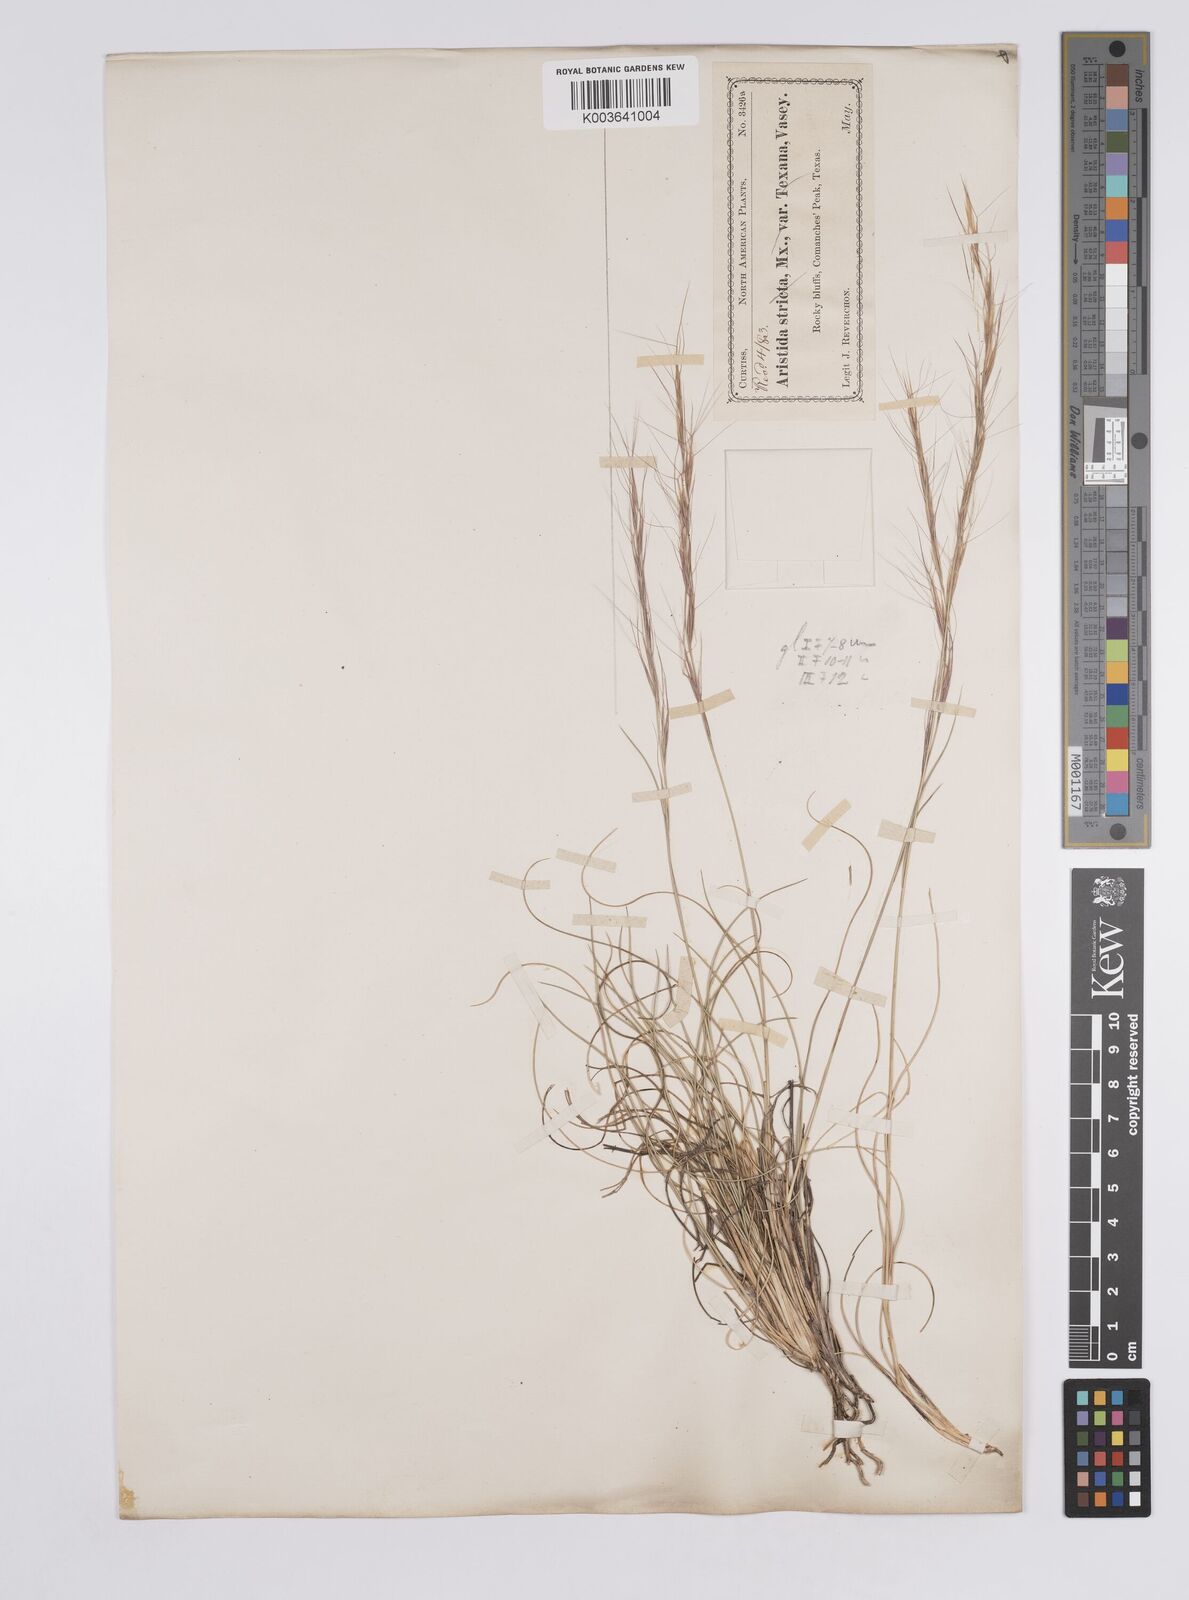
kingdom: Plantae
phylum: Tracheophyta
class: Liliopsida
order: Poales
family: Poaceae
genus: Aristida
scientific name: Aristida purpurea
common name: Purple threeawn
